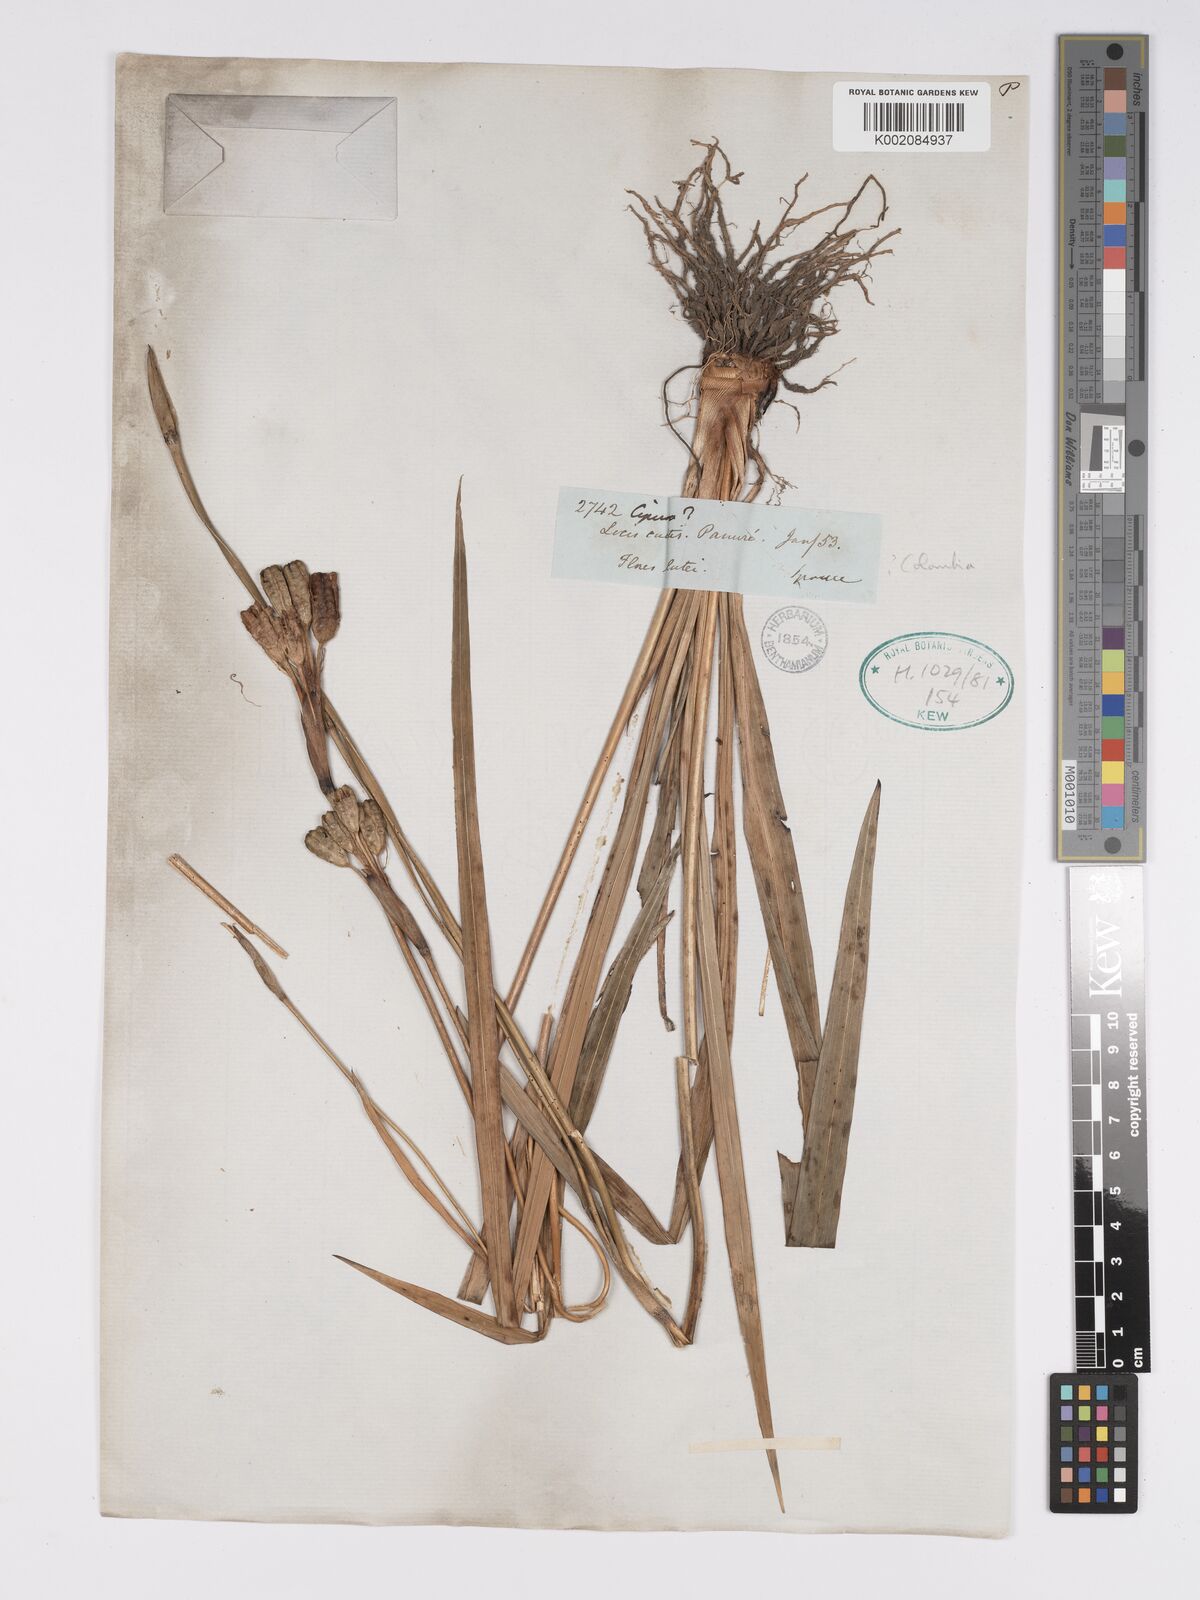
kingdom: Plantae
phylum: Tracheophyta
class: Liliopsida
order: Asparagales
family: Iridaceae
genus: Cipura
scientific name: Cipura paludosa
